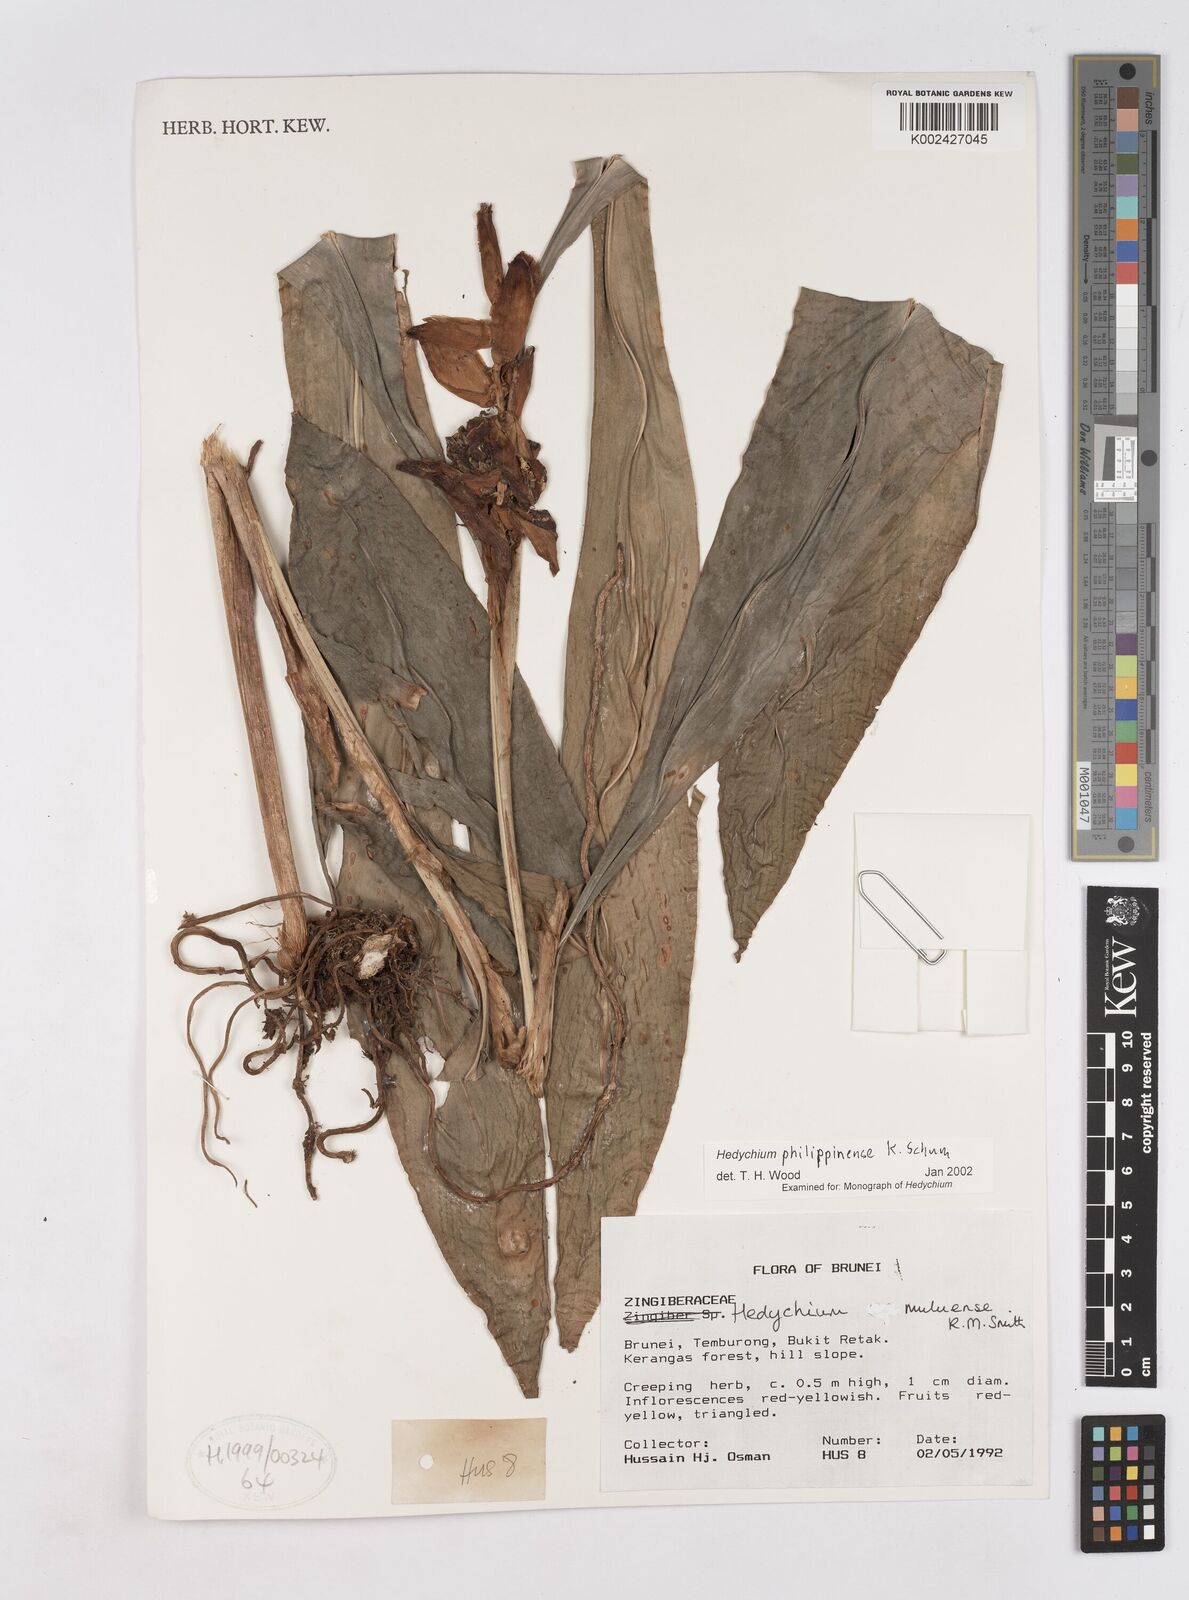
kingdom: Plantae
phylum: Tracheophyta
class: Liliopsida
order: Zingiberales
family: Zingiberaceae
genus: Hedychium
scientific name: Hedychium philippinense
